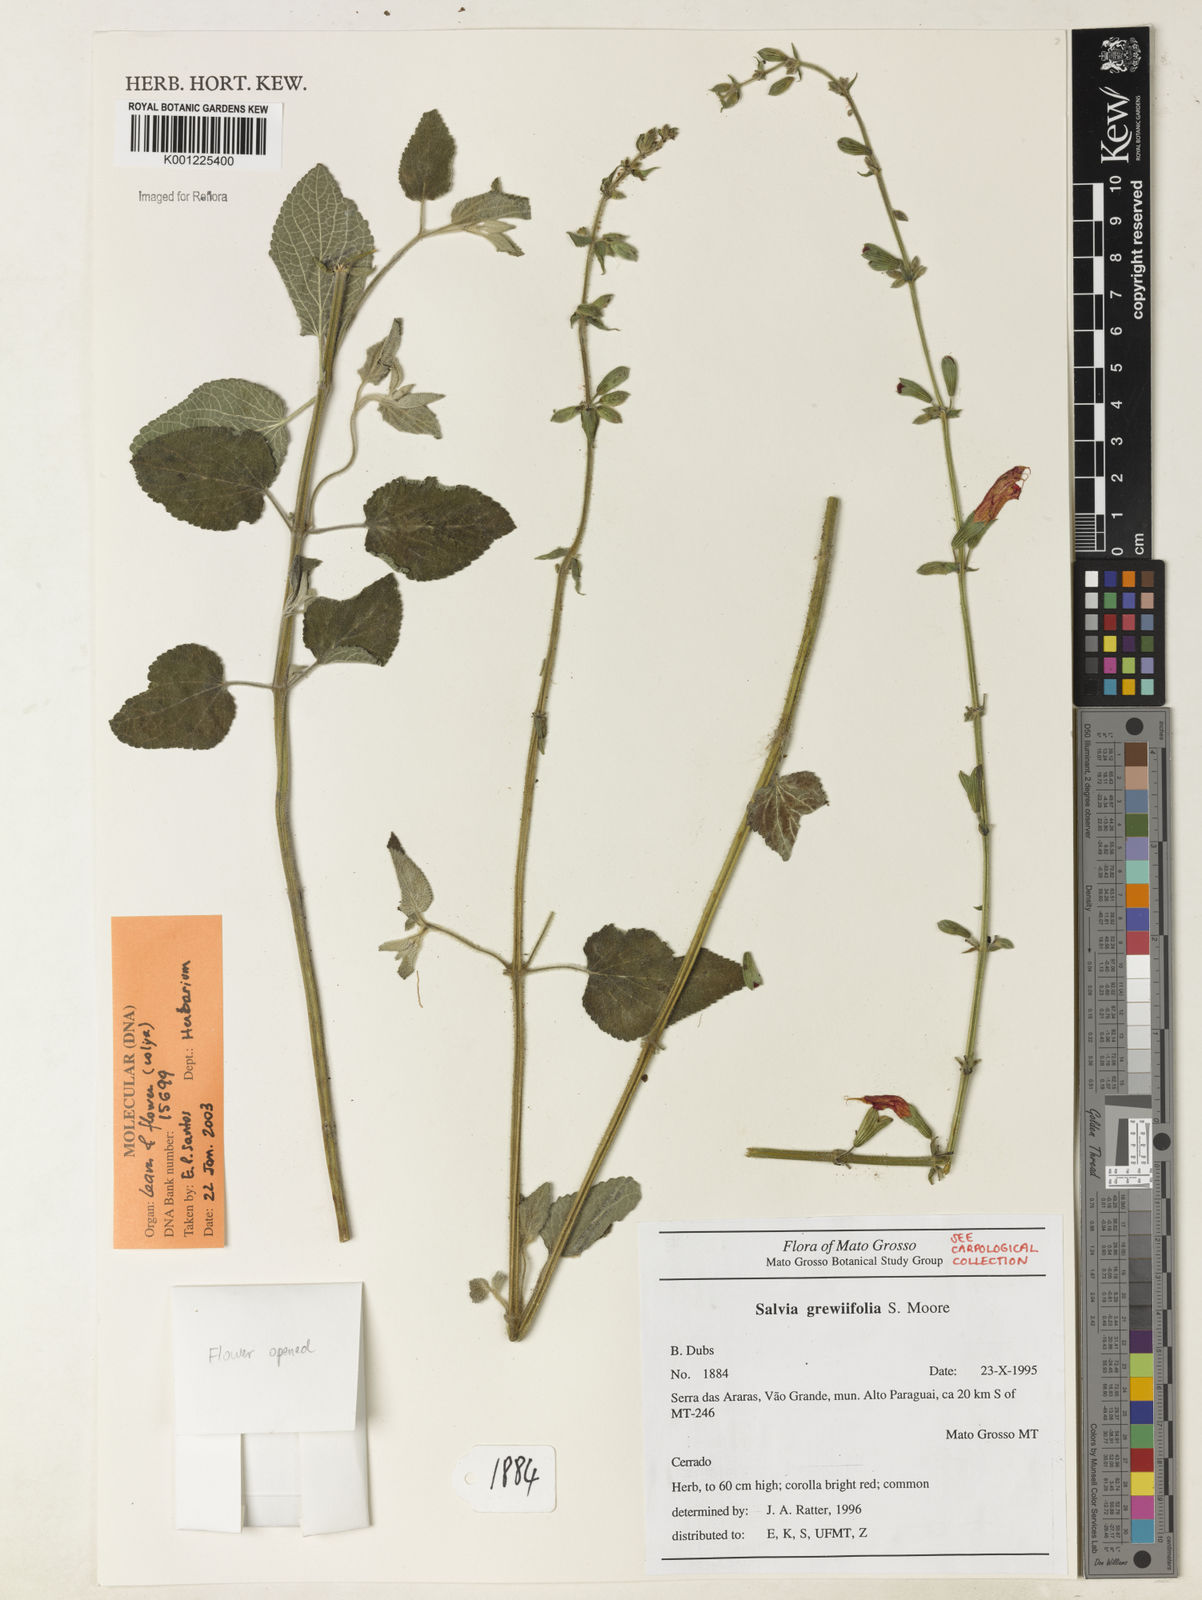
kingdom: Plantae
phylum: Tracheophyta
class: Magnoliopsida
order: Lamiales
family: Lamiaceae
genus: Salvia
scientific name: Salvia grewiifolia
